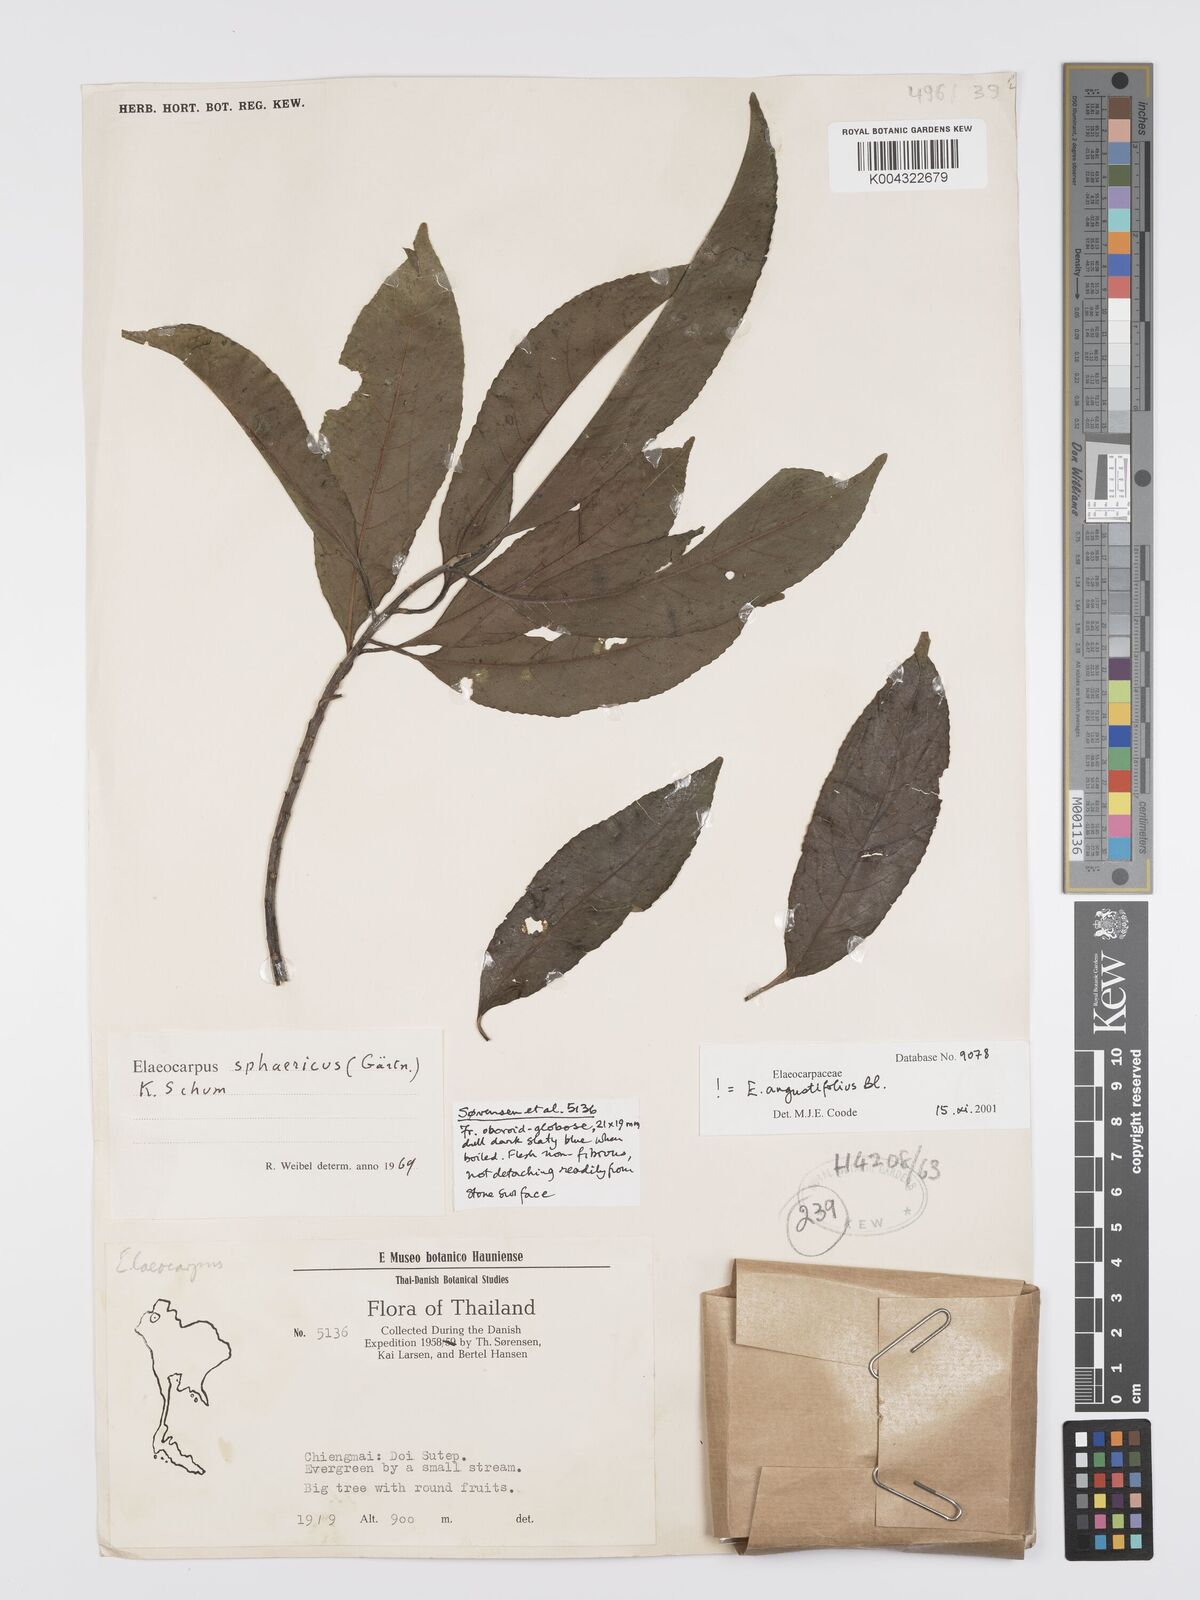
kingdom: Plantae
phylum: Tracheophyta
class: Magnoliopsida
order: Oxalidales
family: Elaeocarpaceae
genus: Elaeocarpus
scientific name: Elaeocarpus
